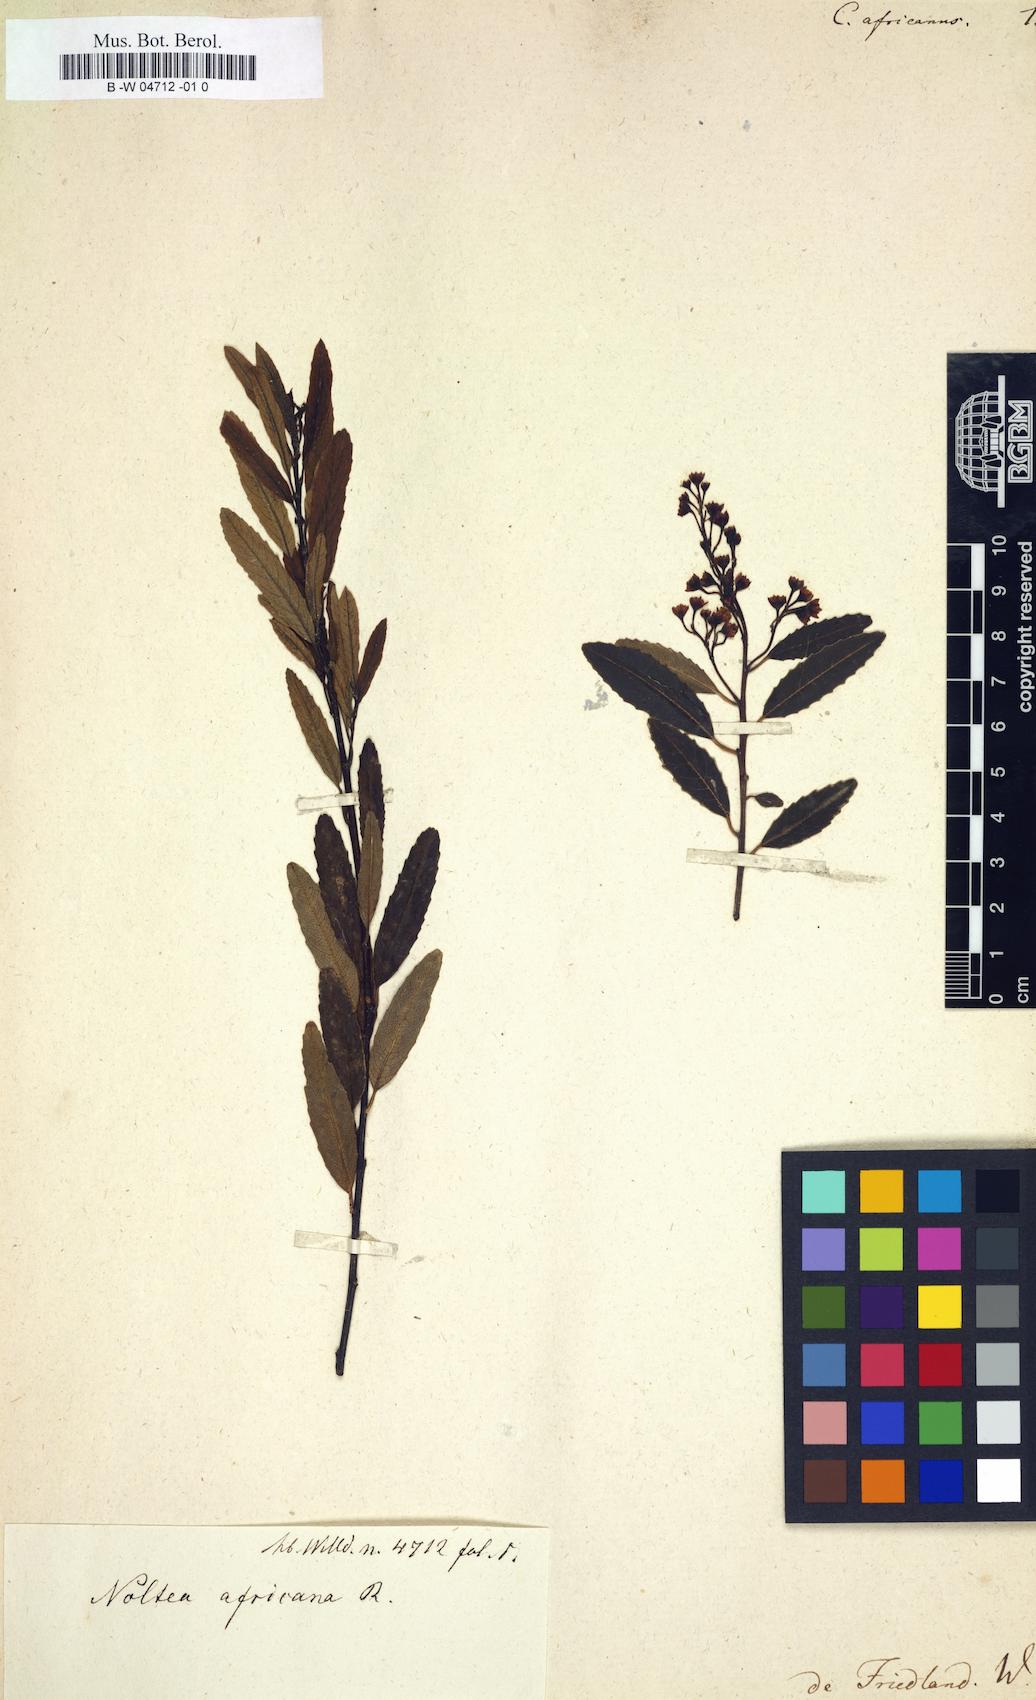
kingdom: Plantae
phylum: Tracheophyta
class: Magnoliopsida
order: Rosales
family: Rhamnaceae
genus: Noltea
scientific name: Noltea africana
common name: Soapbush
